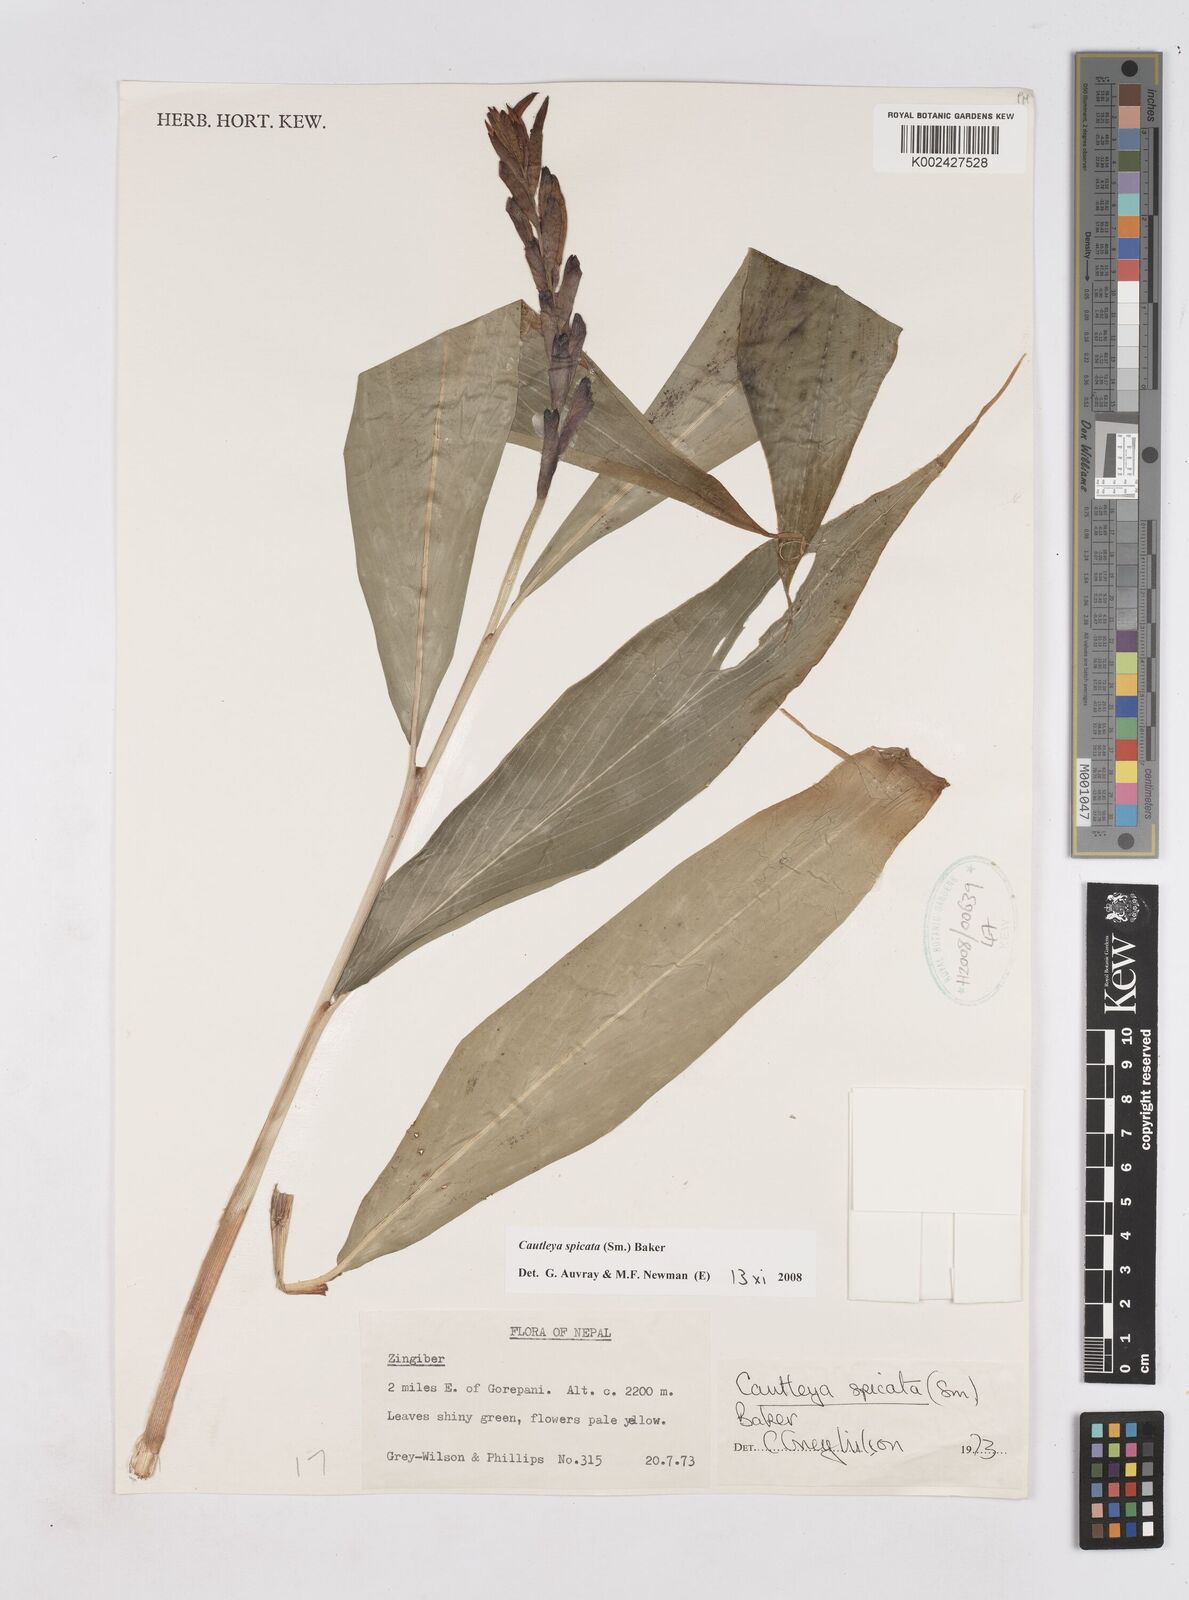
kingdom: Plantae
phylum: Tracheophyta
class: Liliopsida
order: Zingiberales
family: Zingiberaceae
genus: Cautleya
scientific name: Cautleya spicata
